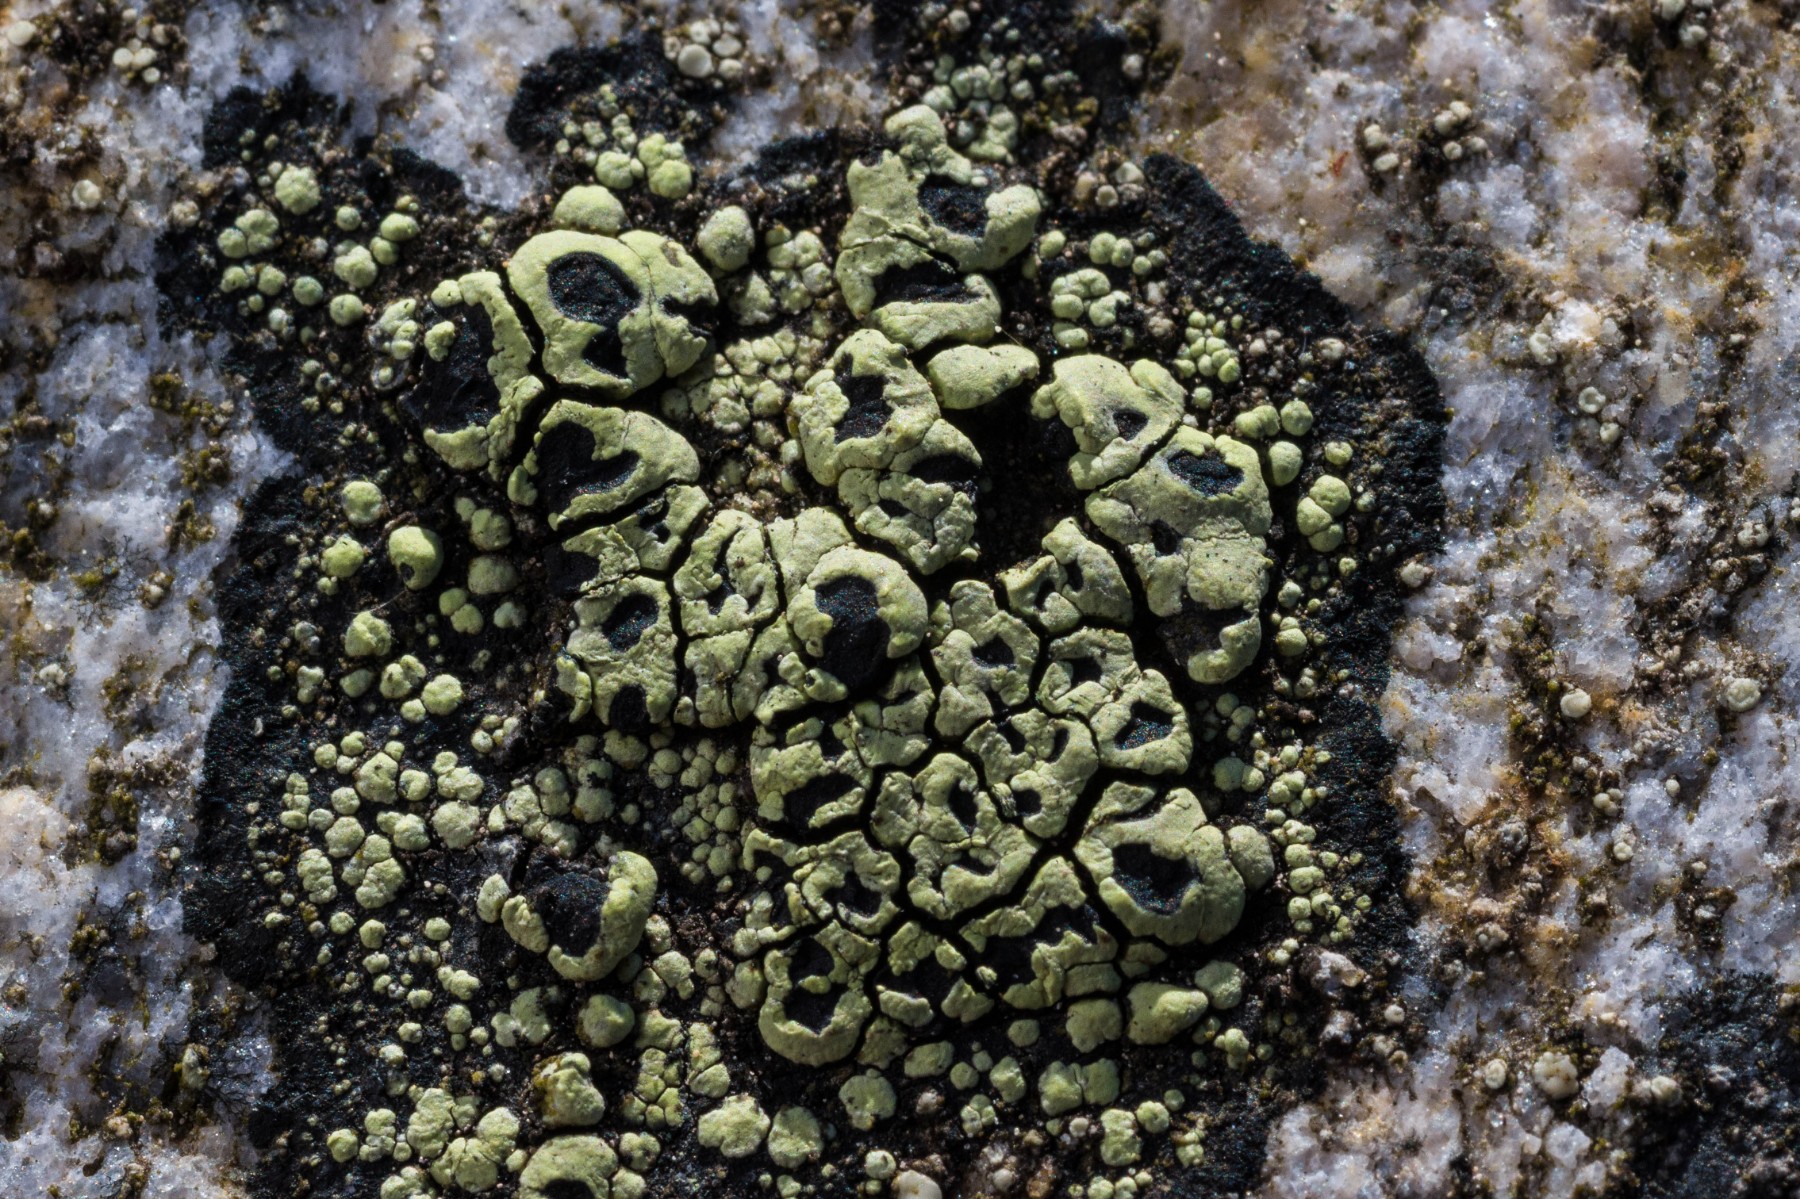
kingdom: Fungi
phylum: Ascomycota
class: Lecanoromycetes
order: Rhizocarpales
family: Rhizocarpaceae
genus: Rhizocarpon
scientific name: Rhizocarpon lecanorinum
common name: krave-landkortlav
